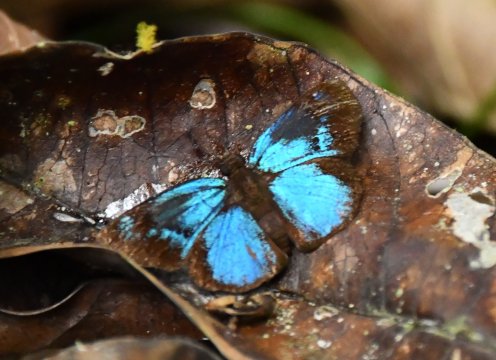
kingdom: Animalia
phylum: Arthropoda
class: Insecta
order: Lepidoptera
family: Hesperiidae
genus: Paches
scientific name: Paches loxus
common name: Glorious Blue-Skipper
